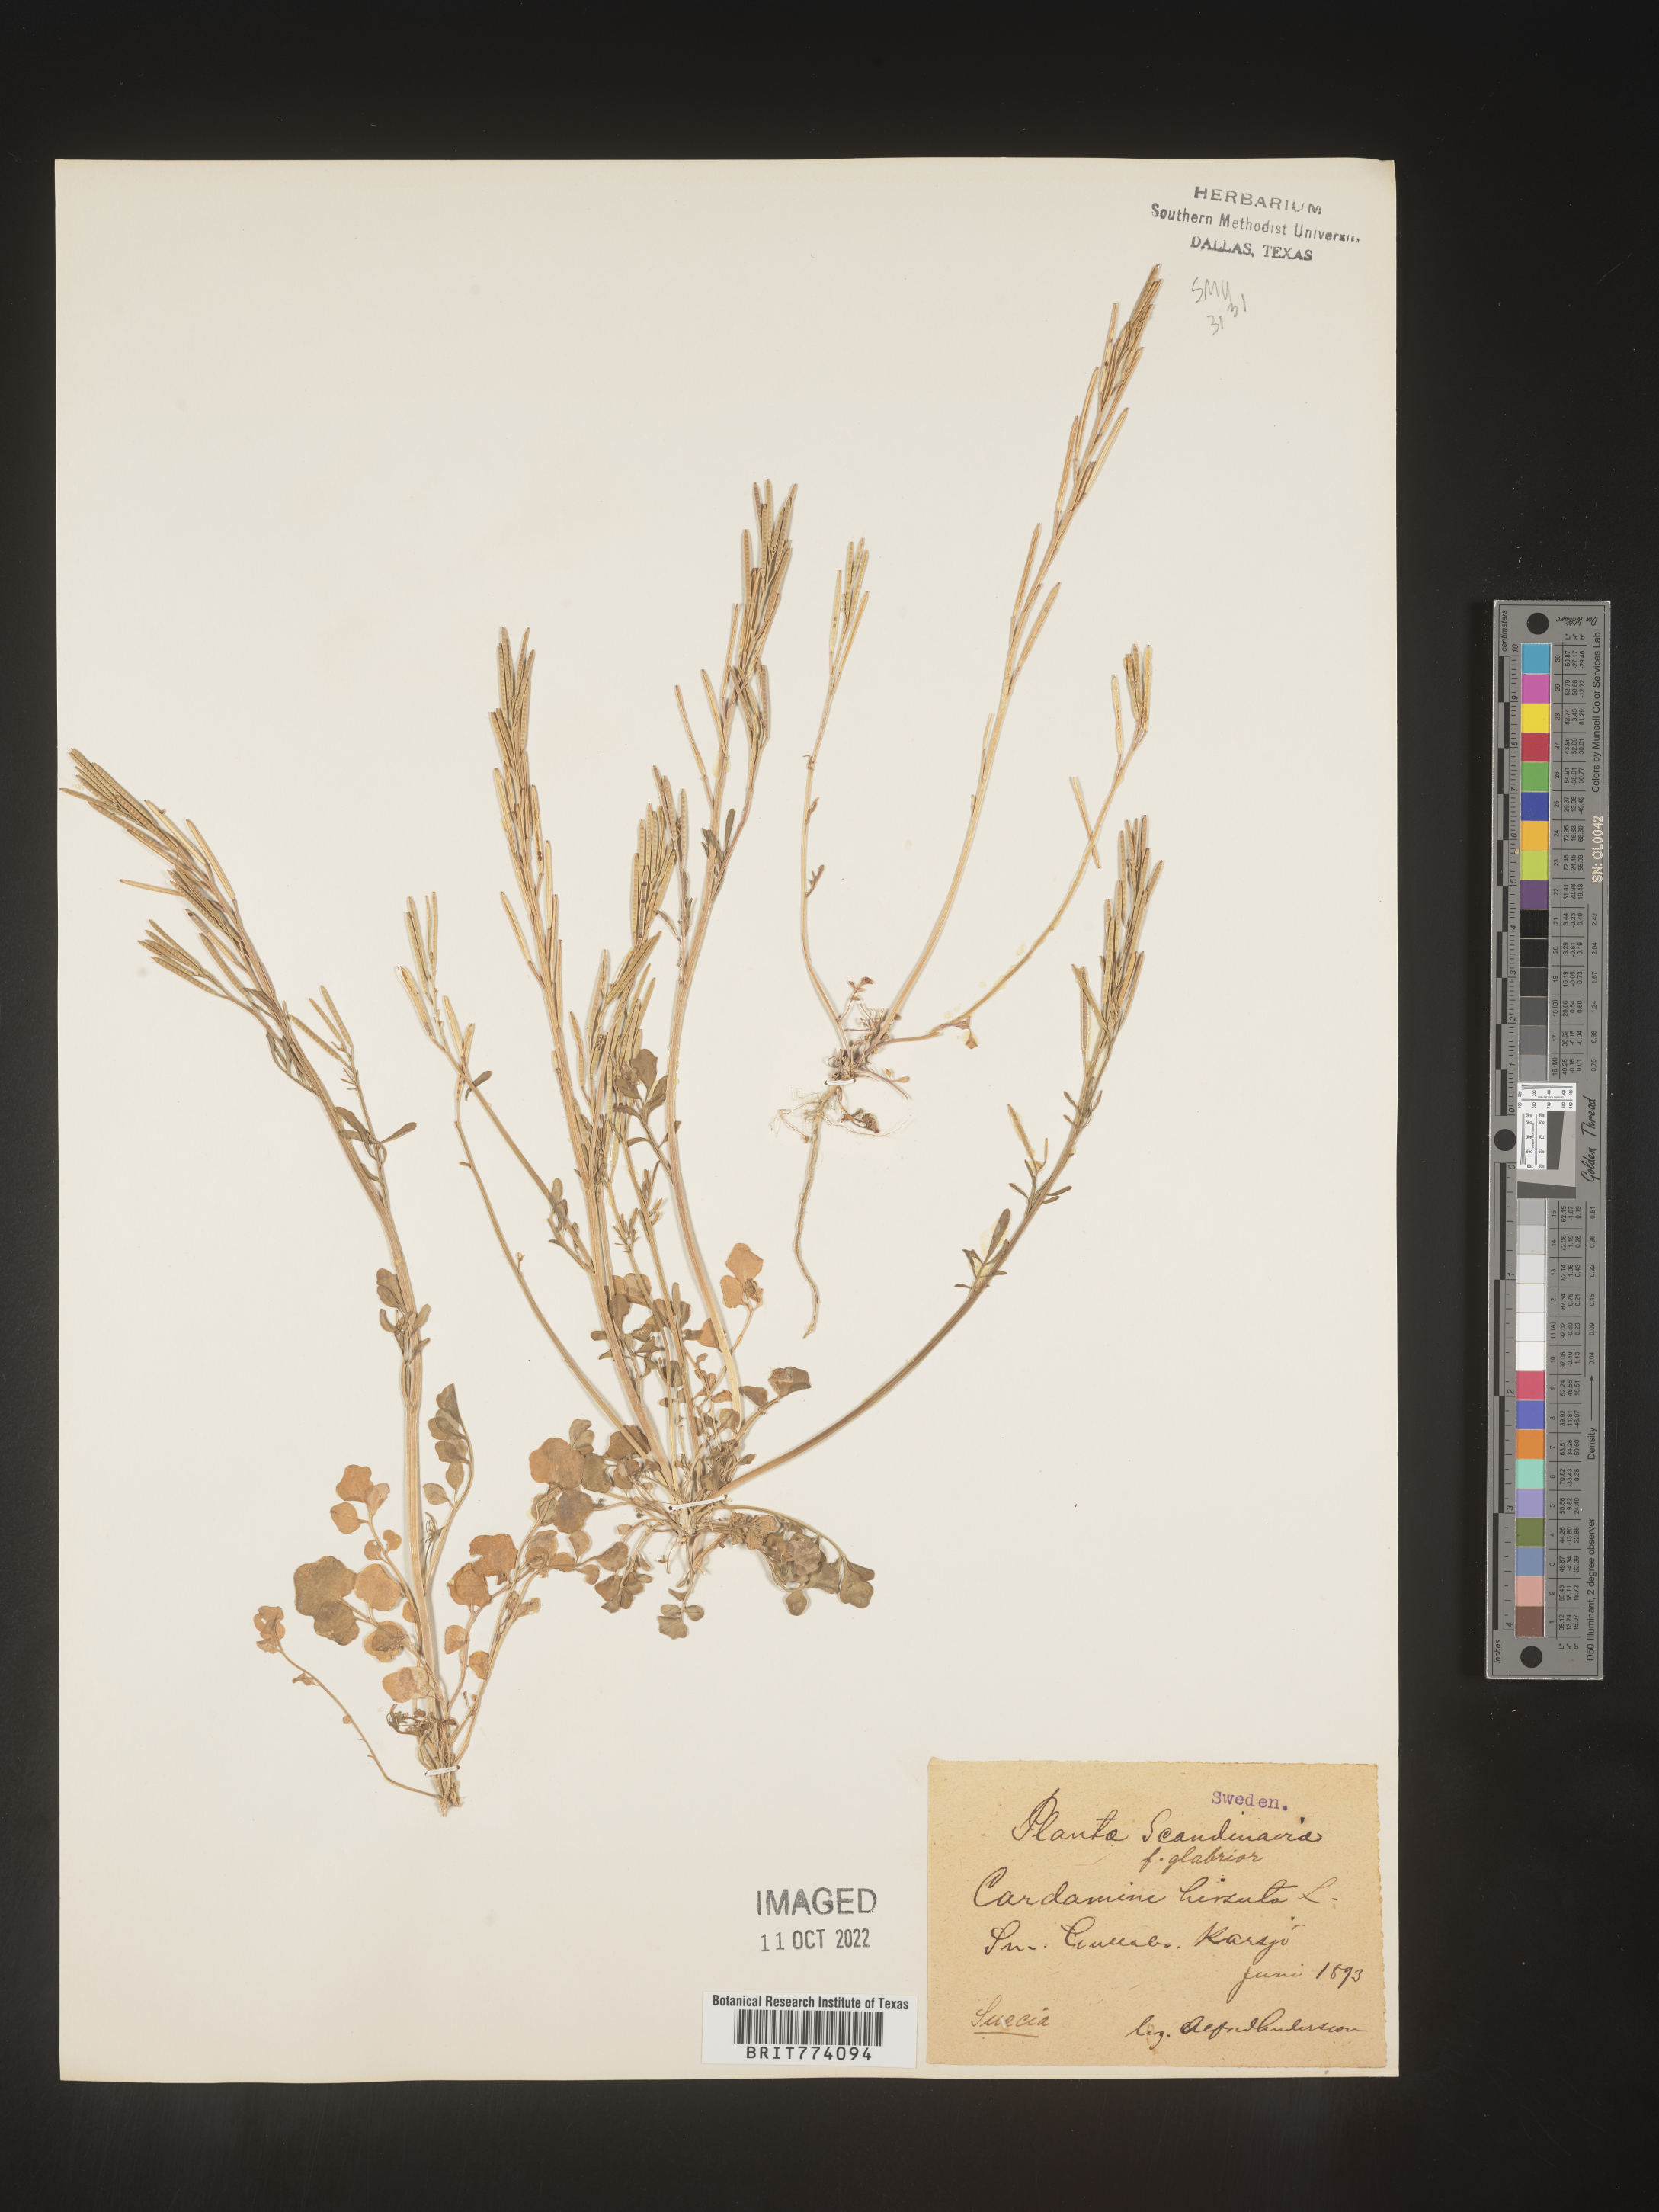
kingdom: Plantae
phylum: Tracheophyta
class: Magnoliopsida
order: Brassicales
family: Brassicaceae
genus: Cardamine
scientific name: Cardamine hirsuta
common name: Hairy bittercress
